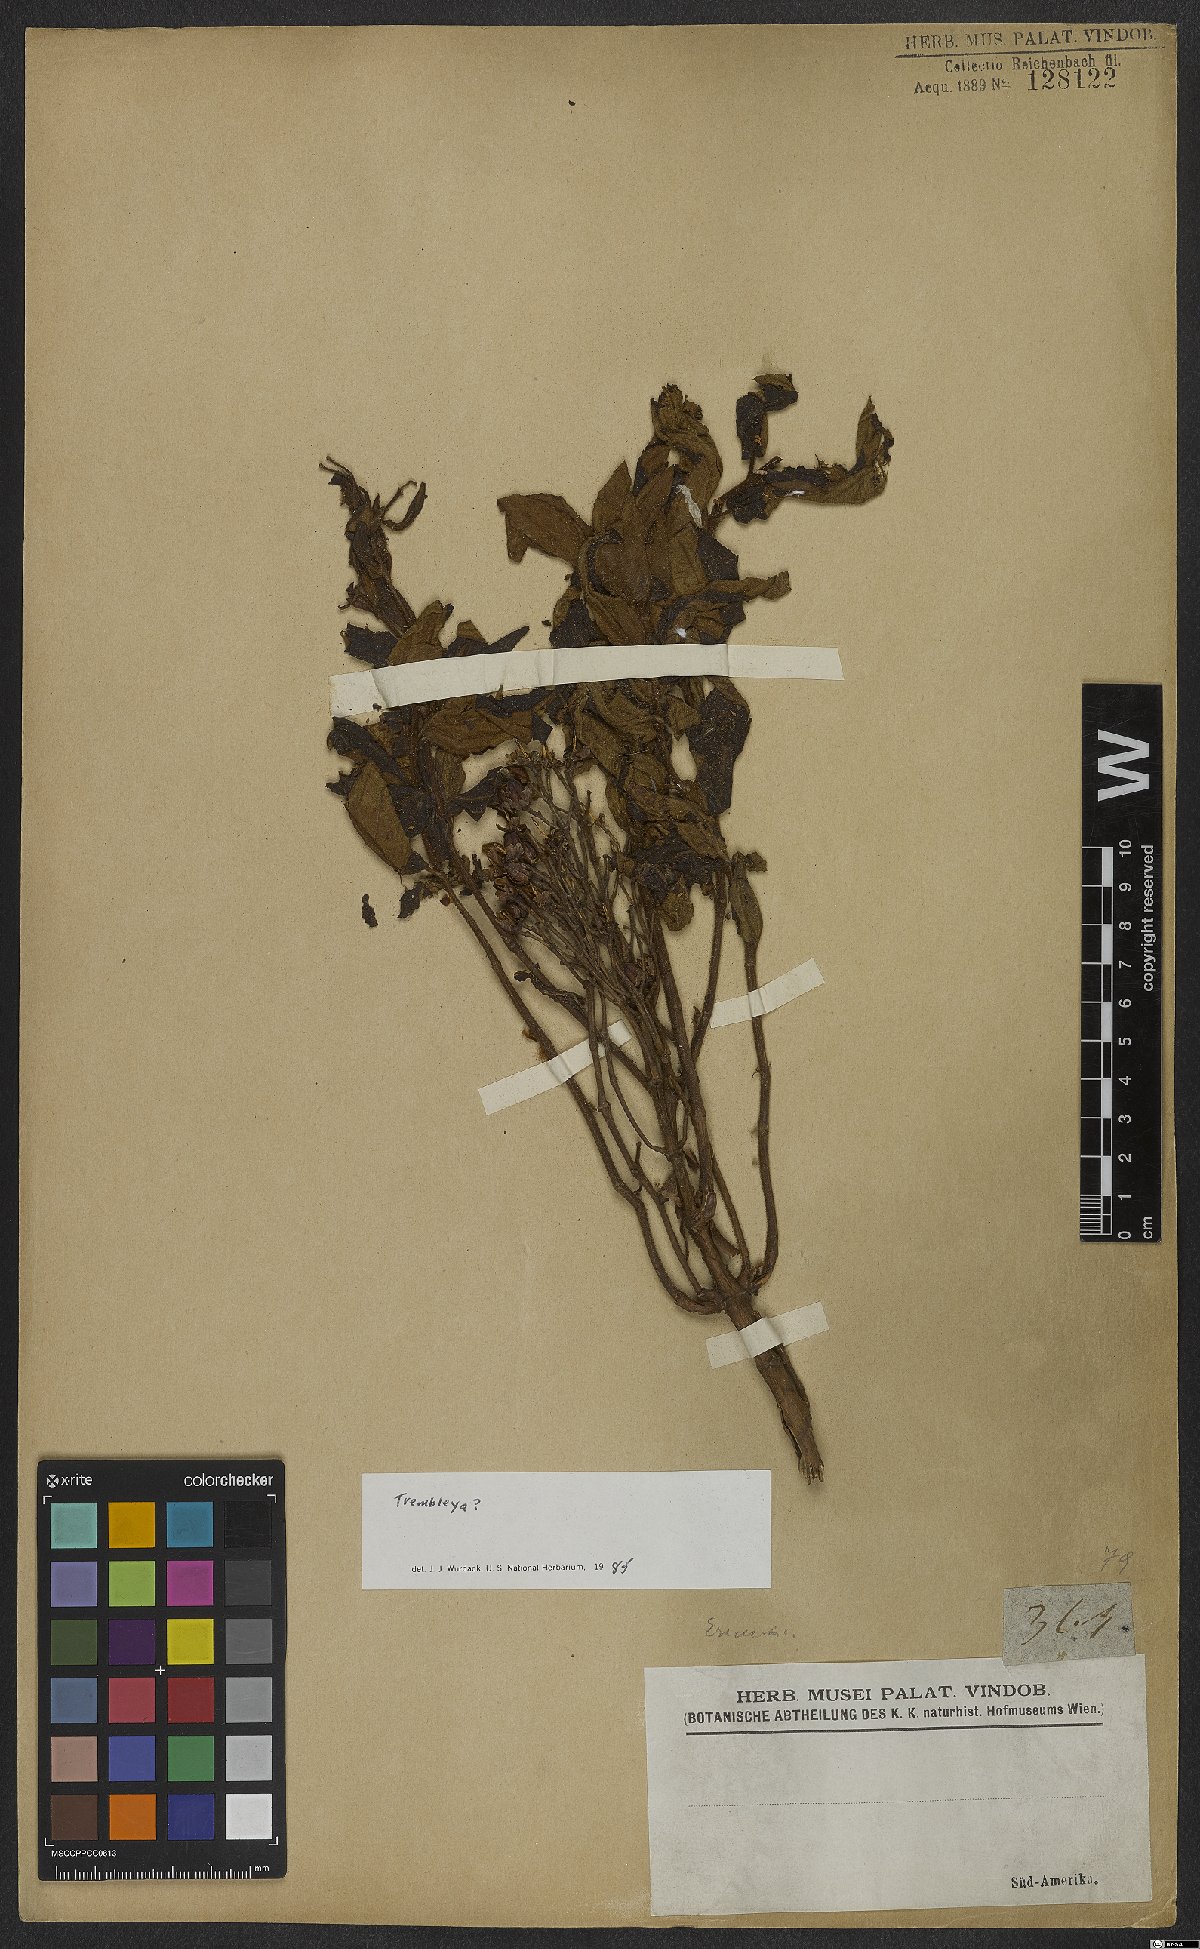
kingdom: Plantae
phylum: Tracheophyta
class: Magnoliopsida
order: Myrtales
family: Melastomataceae
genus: Microlicia
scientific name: Microlicia
